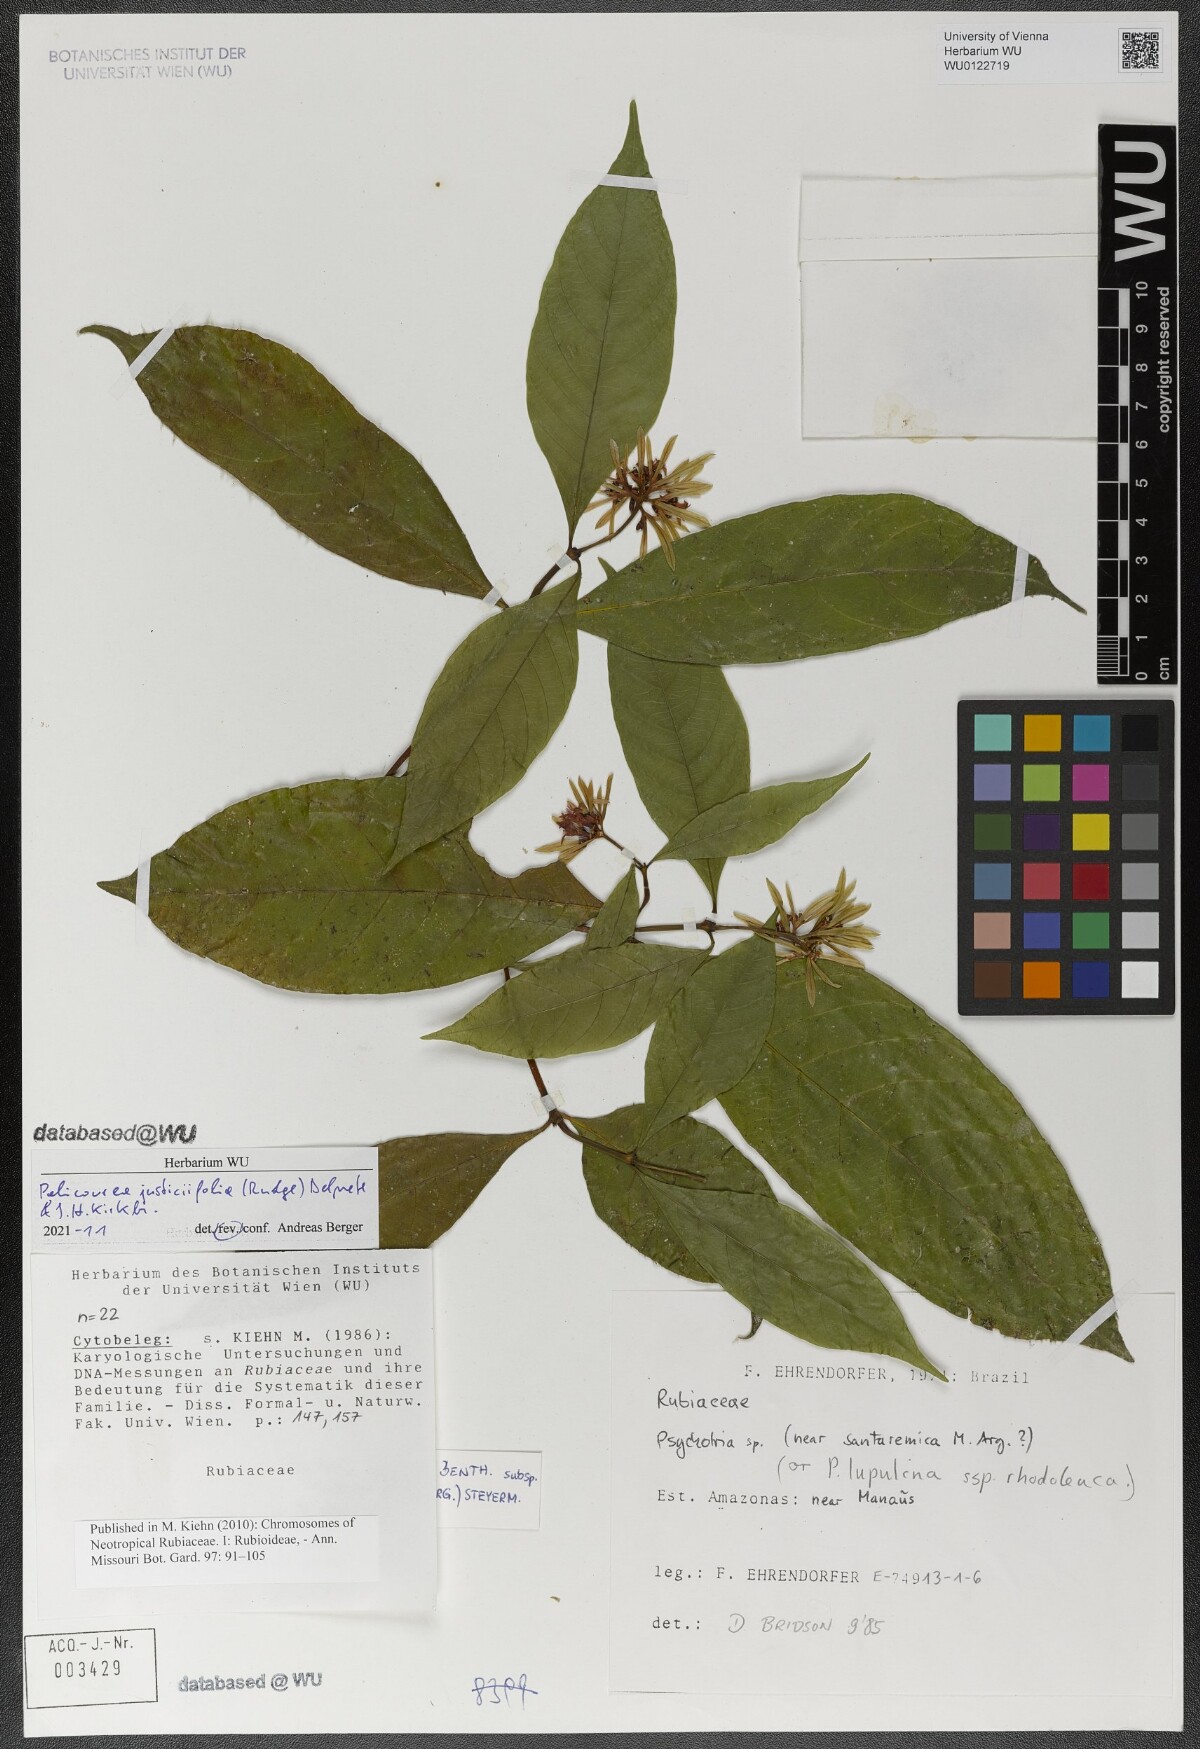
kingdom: Plantae
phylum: Tracheophyta
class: Magnoliopsida
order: Gentianales
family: Rubiaceae
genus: Palicourea
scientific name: Palicourea justiciifolia
